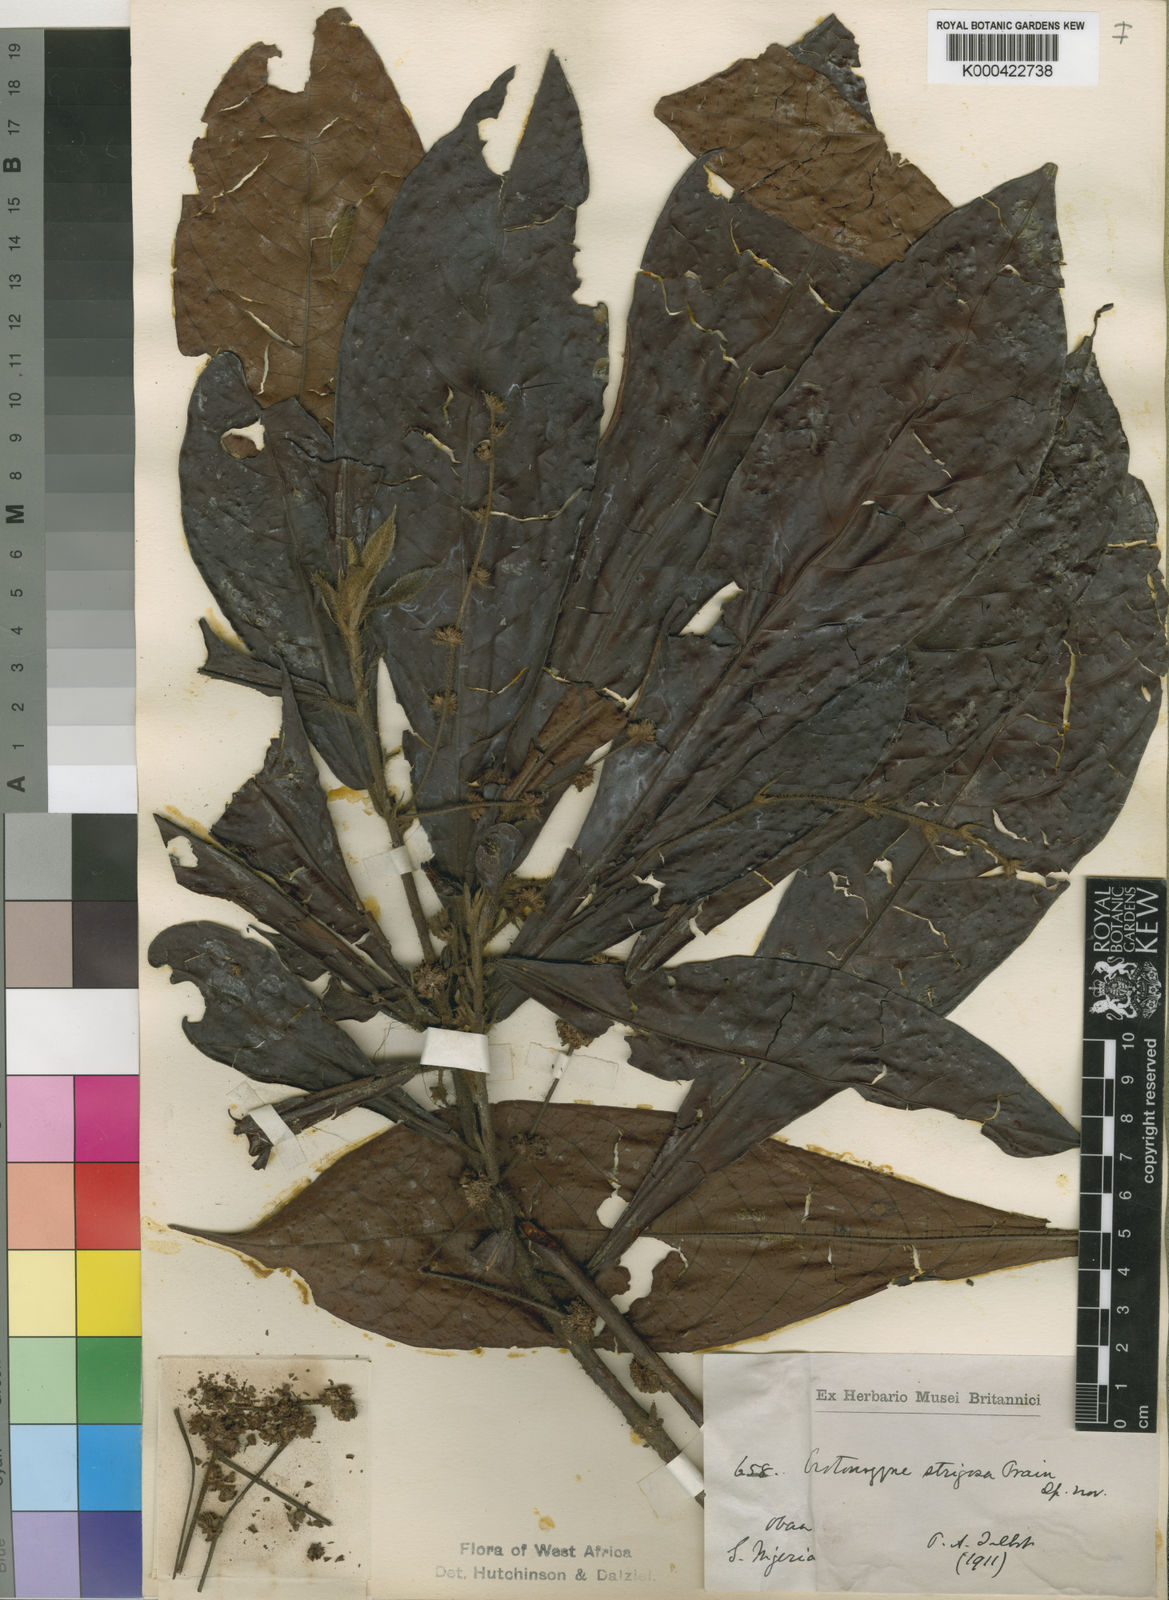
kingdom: Plantae
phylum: Tracheophyta
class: Magnoliopsida
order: Malpighiales
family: Euphorbiaceae
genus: Crotonogyne
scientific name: Crotonogyne poggei
